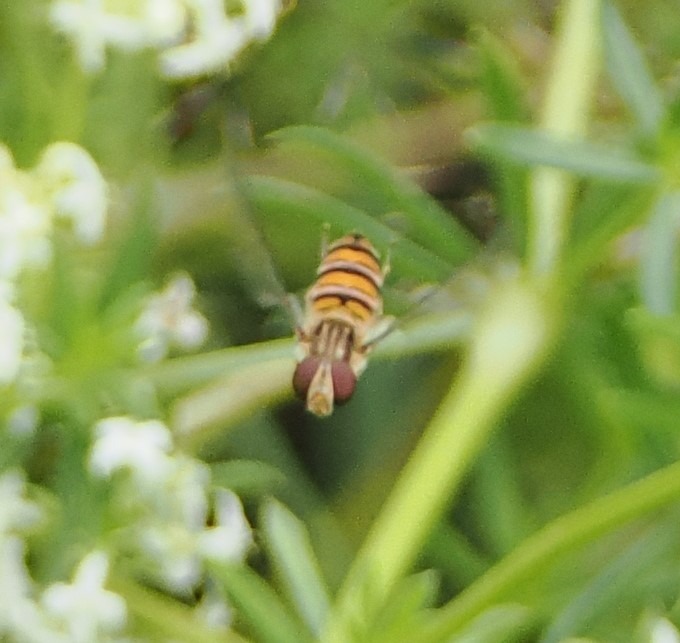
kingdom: Animalia
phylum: Arthropoda
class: Insecta
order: Diptera
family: Syrphidae
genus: Episyrphus
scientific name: Episyrphus balteatus
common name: Dobbeltbåndet svirreflue
